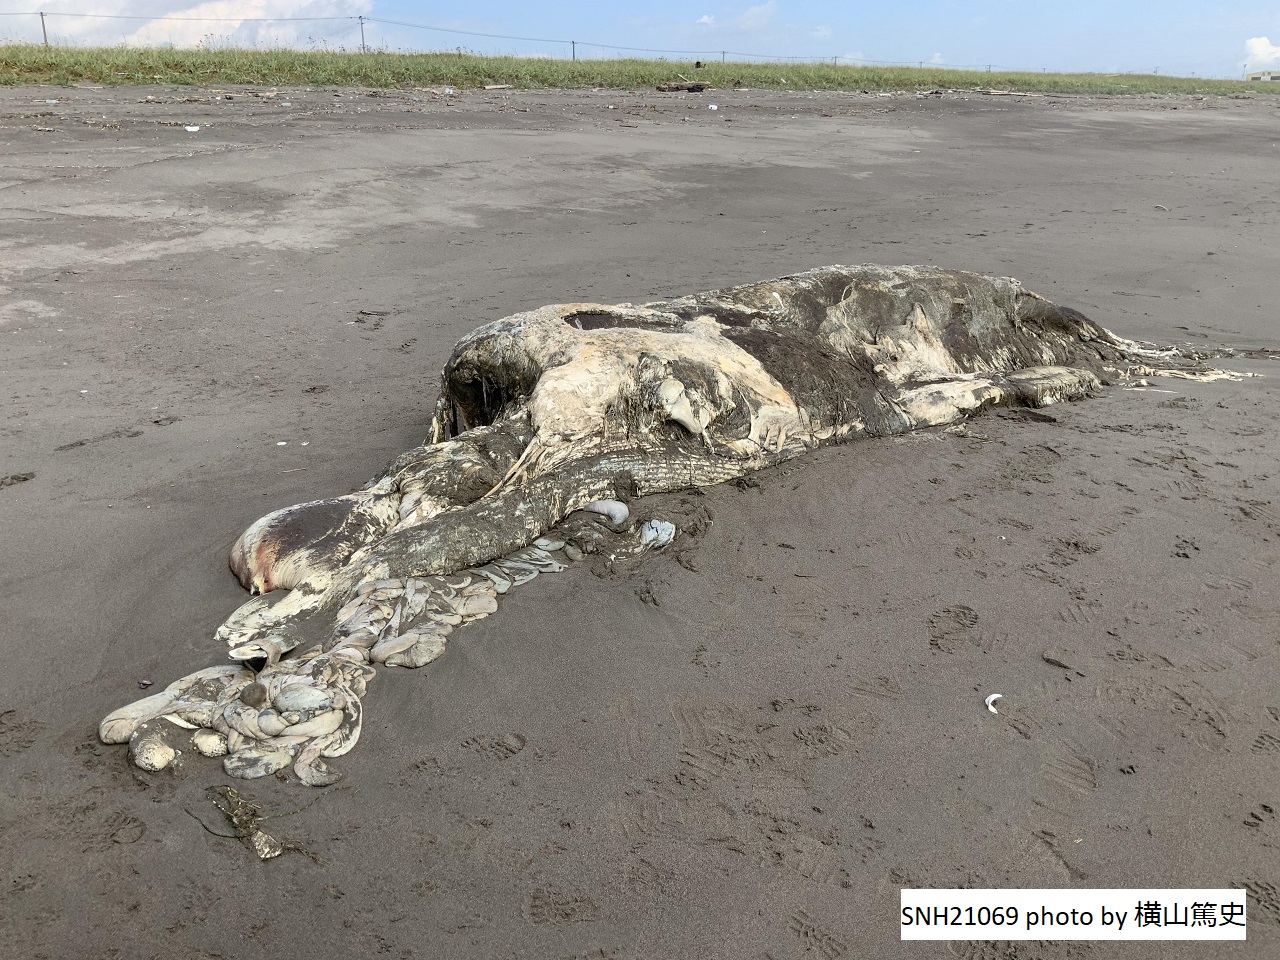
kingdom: Animalia
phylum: Chordata
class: Mammalia
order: Cetacea
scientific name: Cetacea
